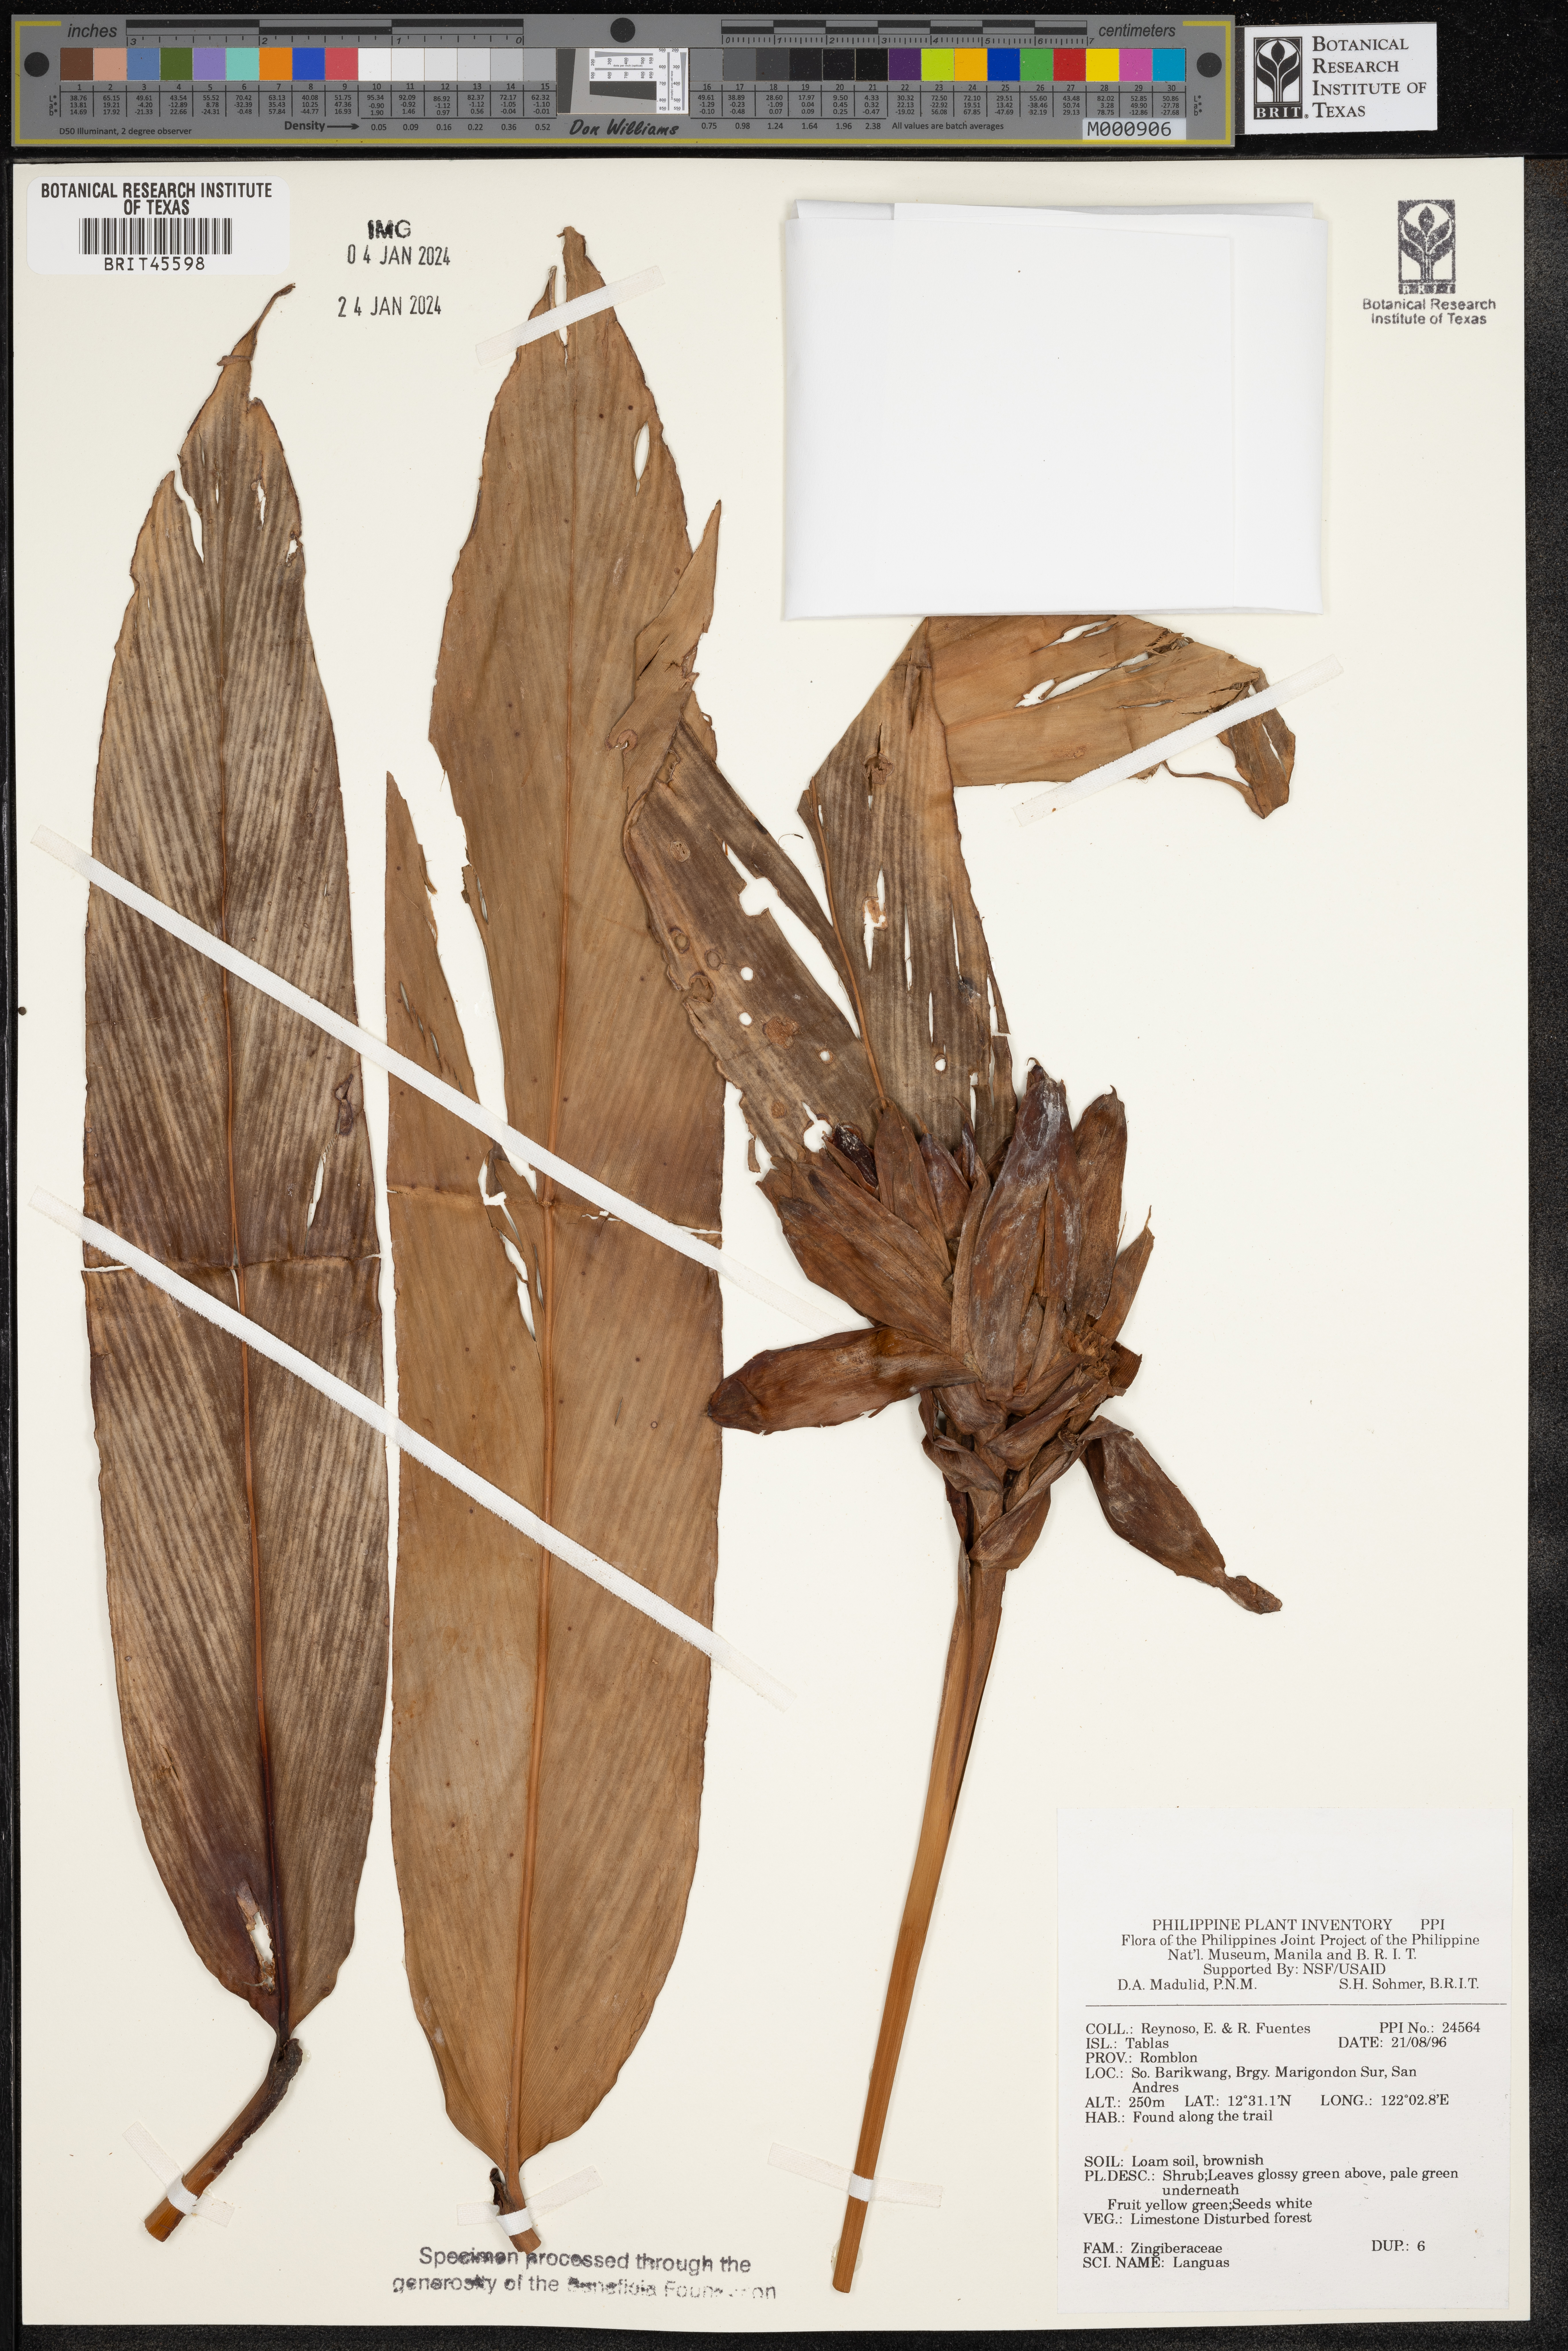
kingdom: Plantae
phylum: Tracheophyta
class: Liliopsida
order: Zingiberales
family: Zingiberaceae
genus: Alpinia
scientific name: Alpinia
